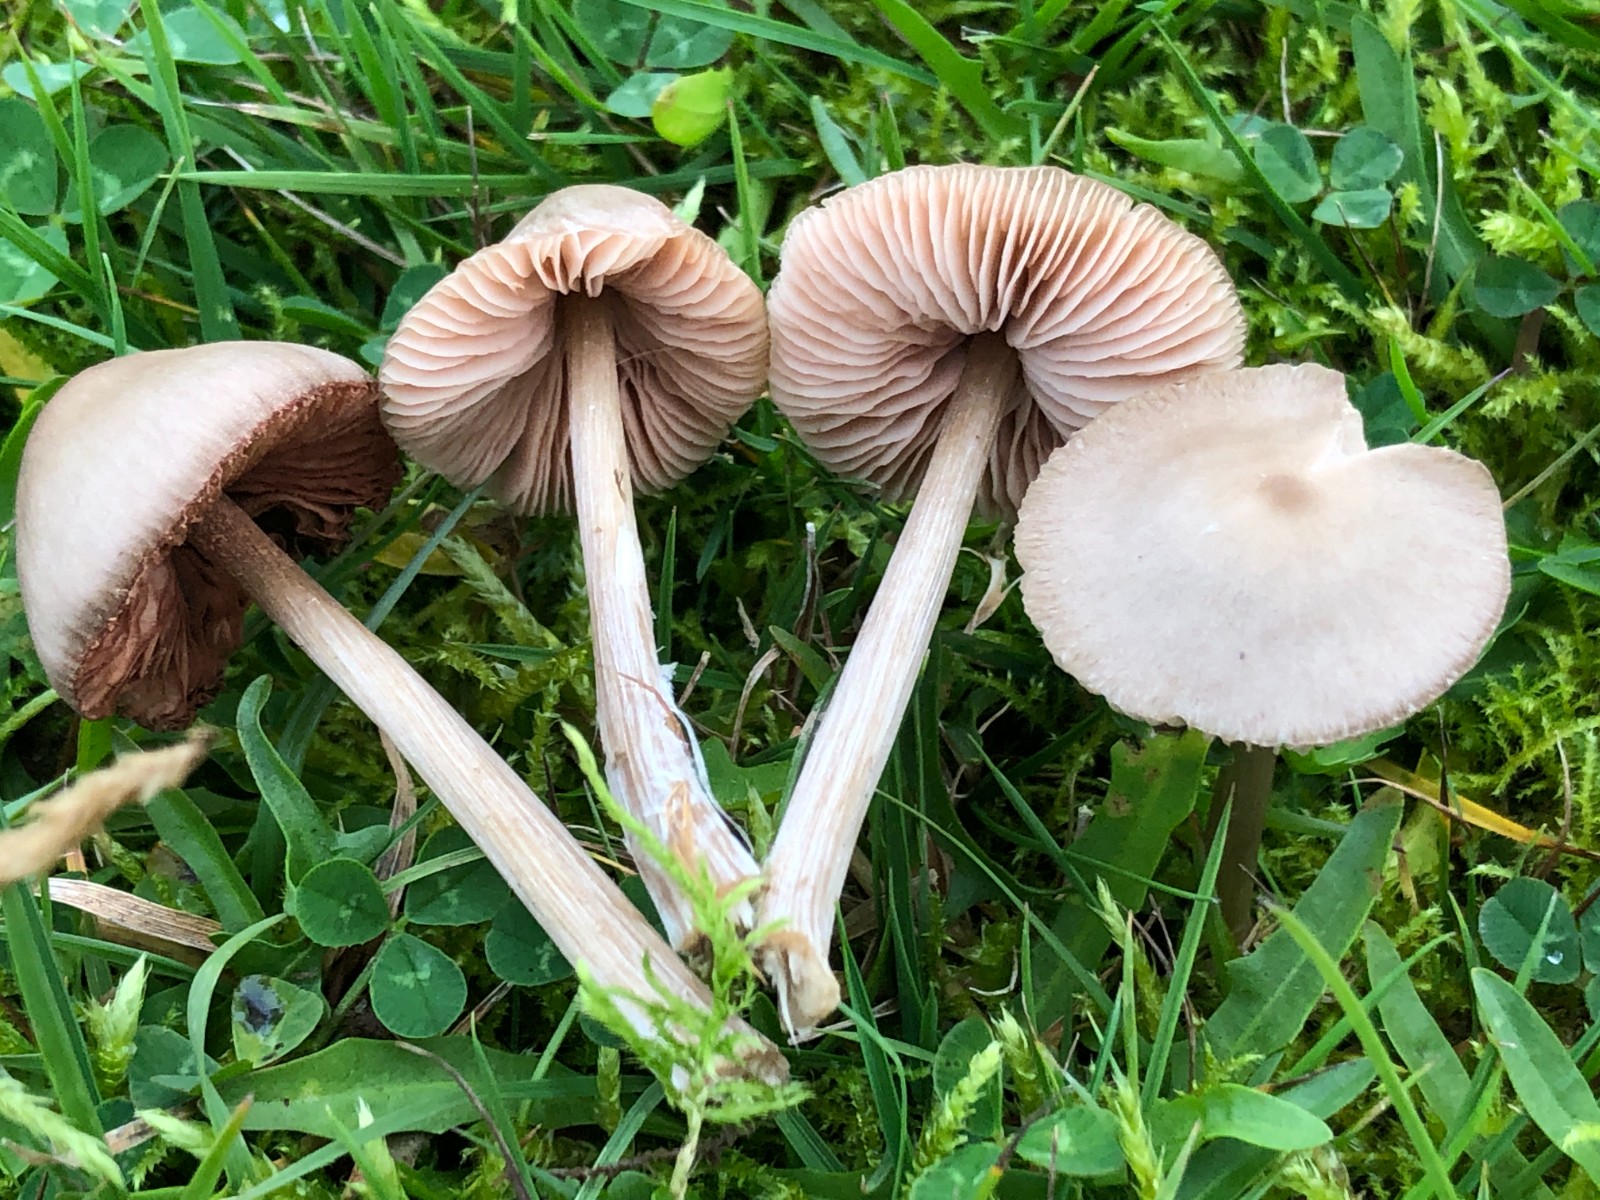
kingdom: Fungi
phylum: Basidiomycota
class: Agaricomycetes
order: Agaricales
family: Entolomataceae
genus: Entoloma
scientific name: Entoloma conferendum
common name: stjernesporet rødblad
